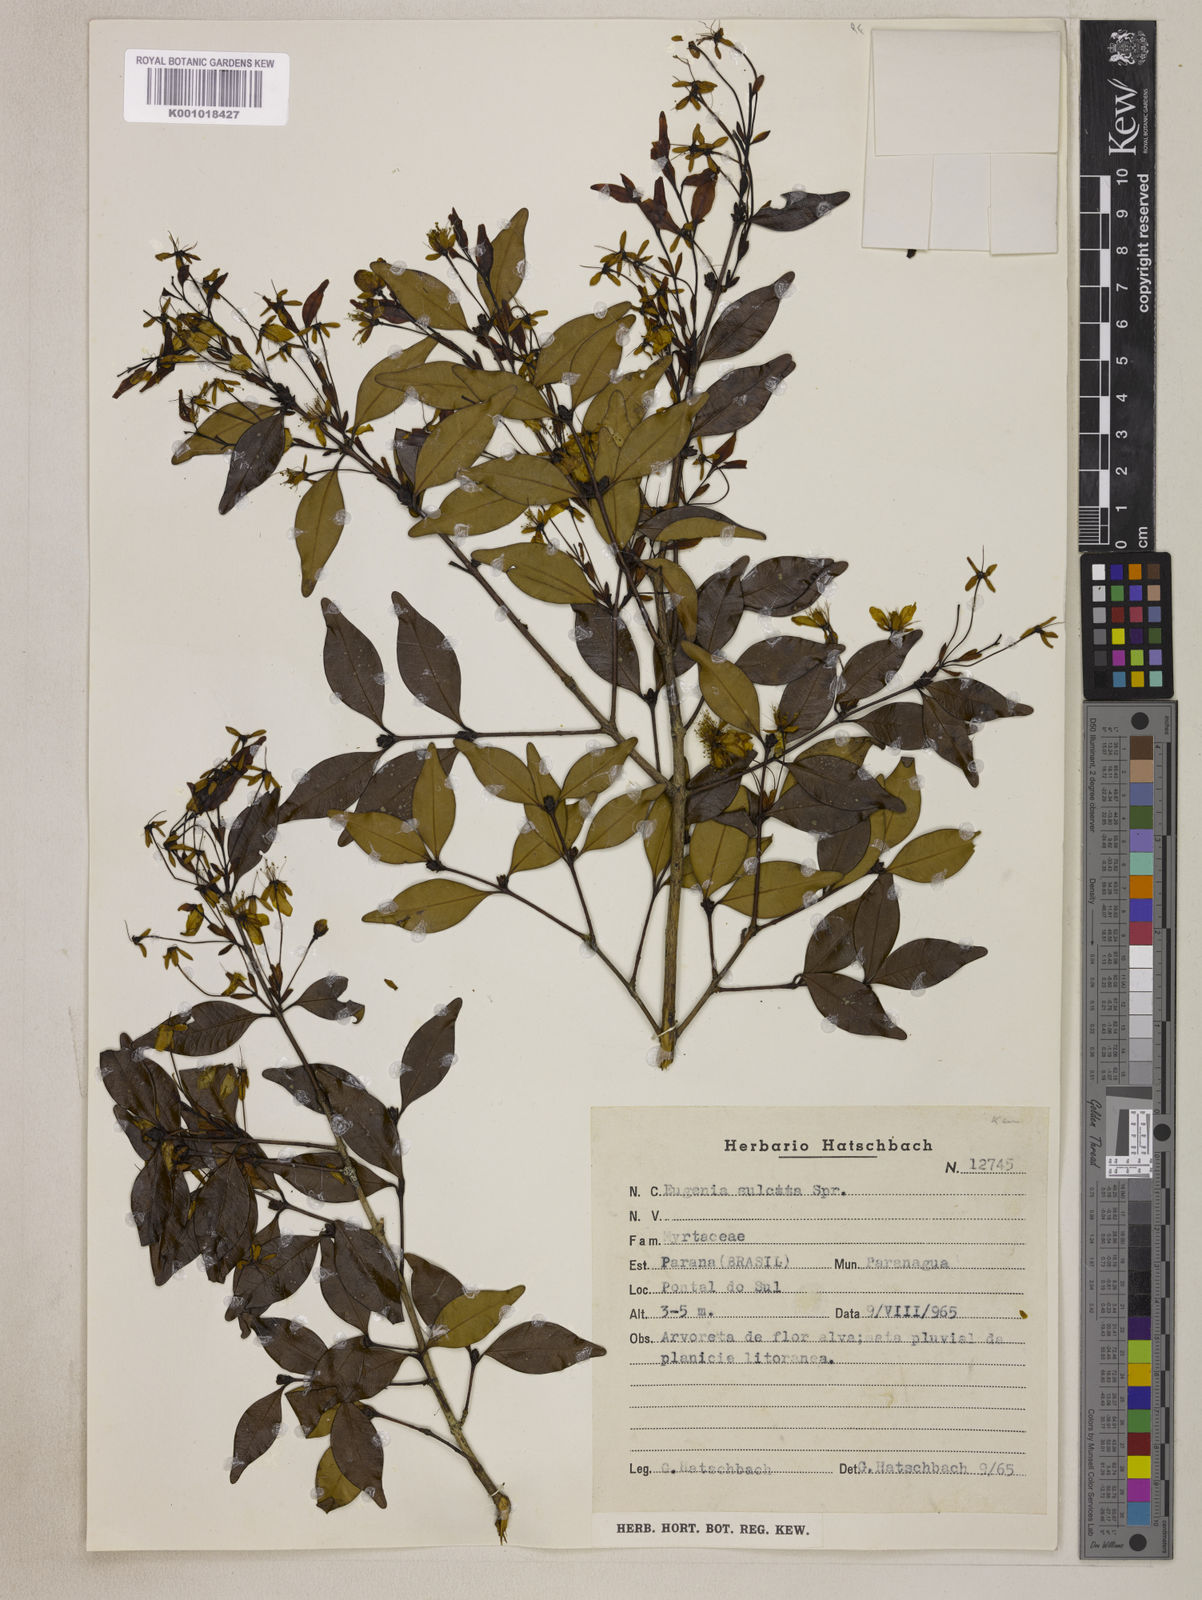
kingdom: Plantae
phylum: Tracheophyta
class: Magnoliopsida
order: Myrtales
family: Myrtaceae
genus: Eugenia
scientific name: Eugenia sulcata
